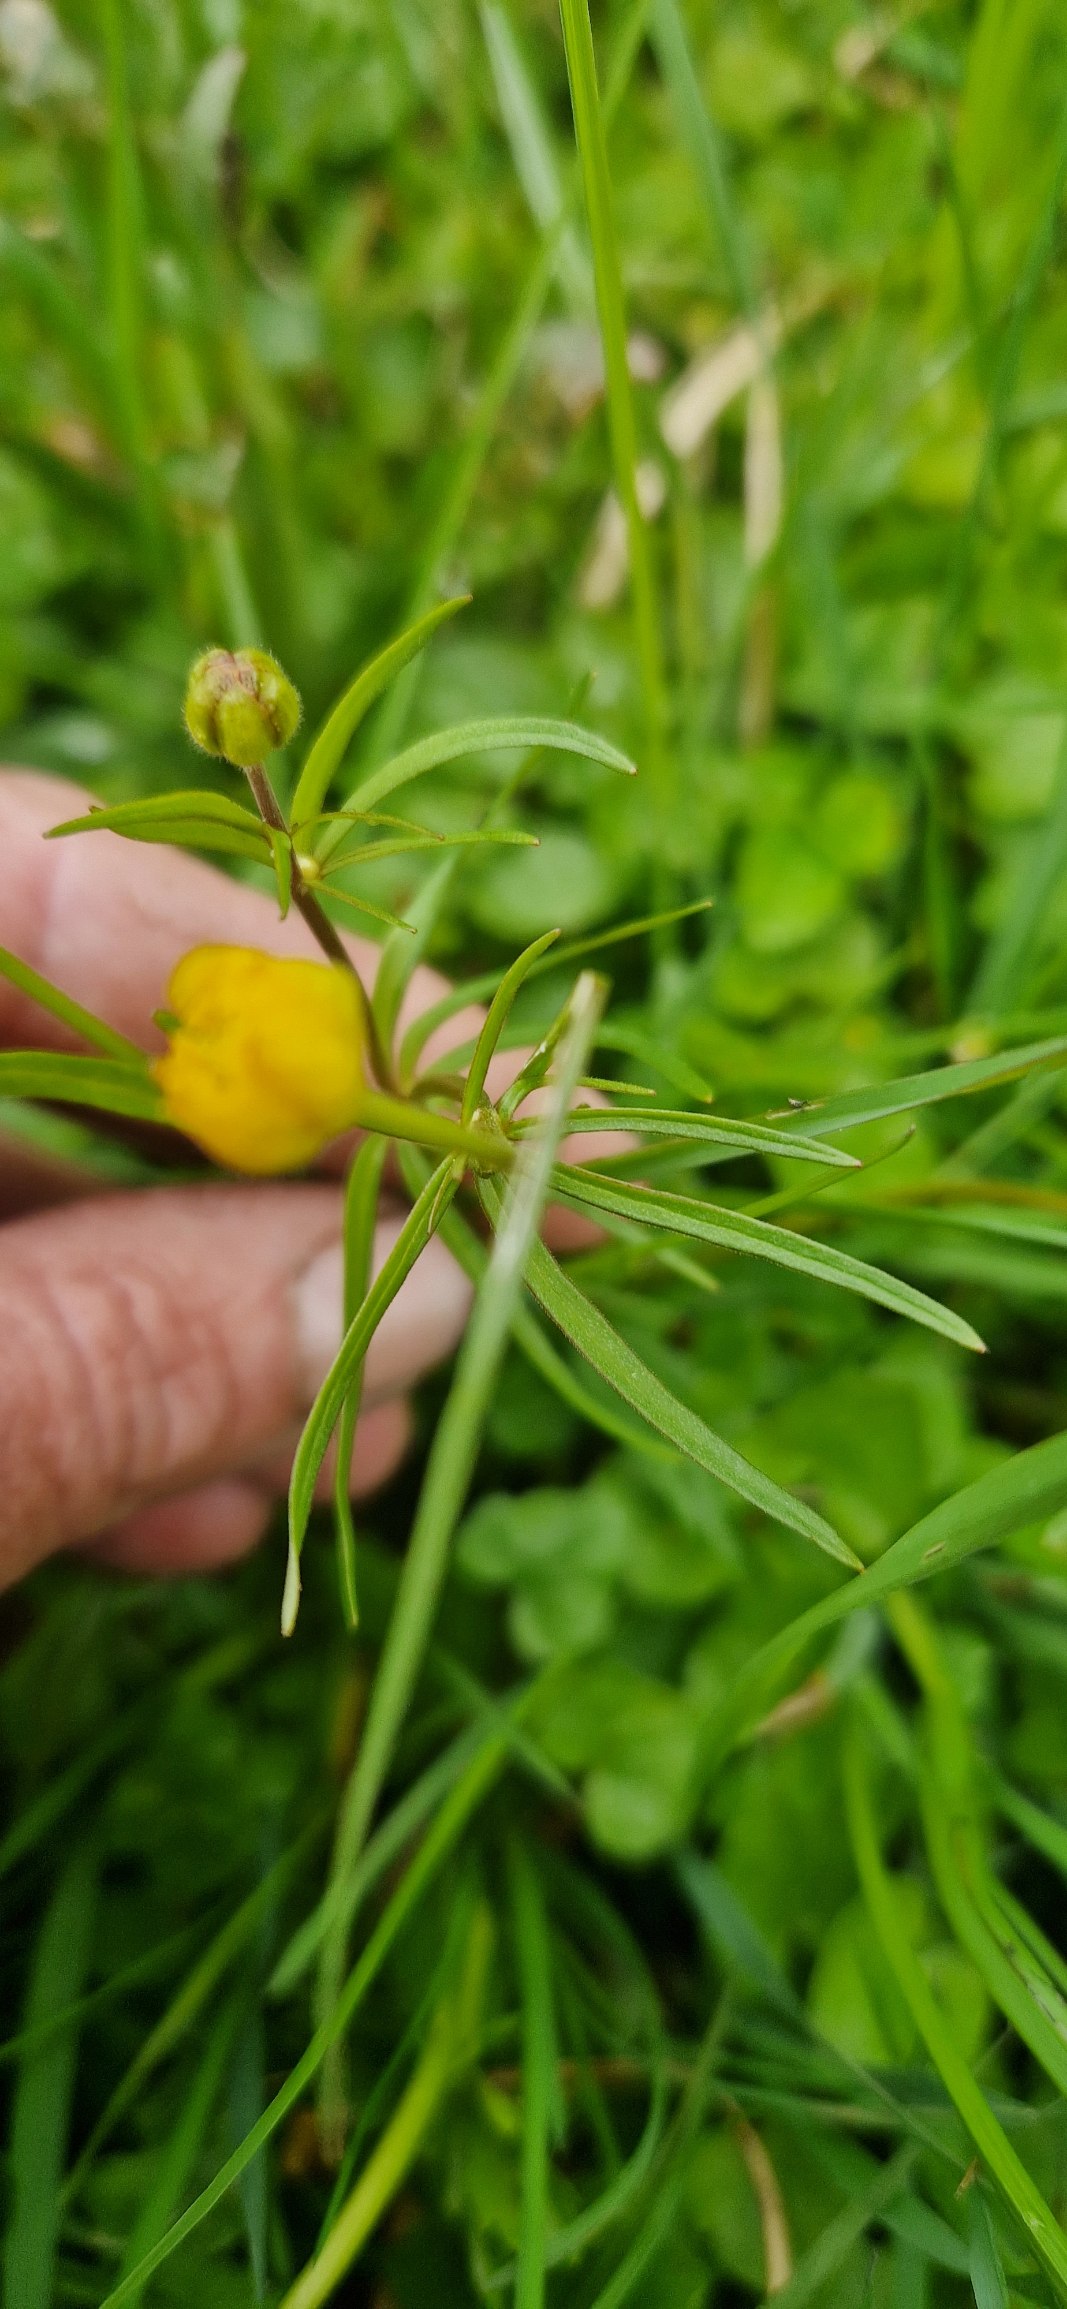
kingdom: Plantae
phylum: Tracheophyta
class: Magnoliopsida
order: Ranunculales
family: Ranunculaceae
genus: Ranunculus
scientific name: Ranunculus auricomus
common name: Nyrebladet ranunkel
